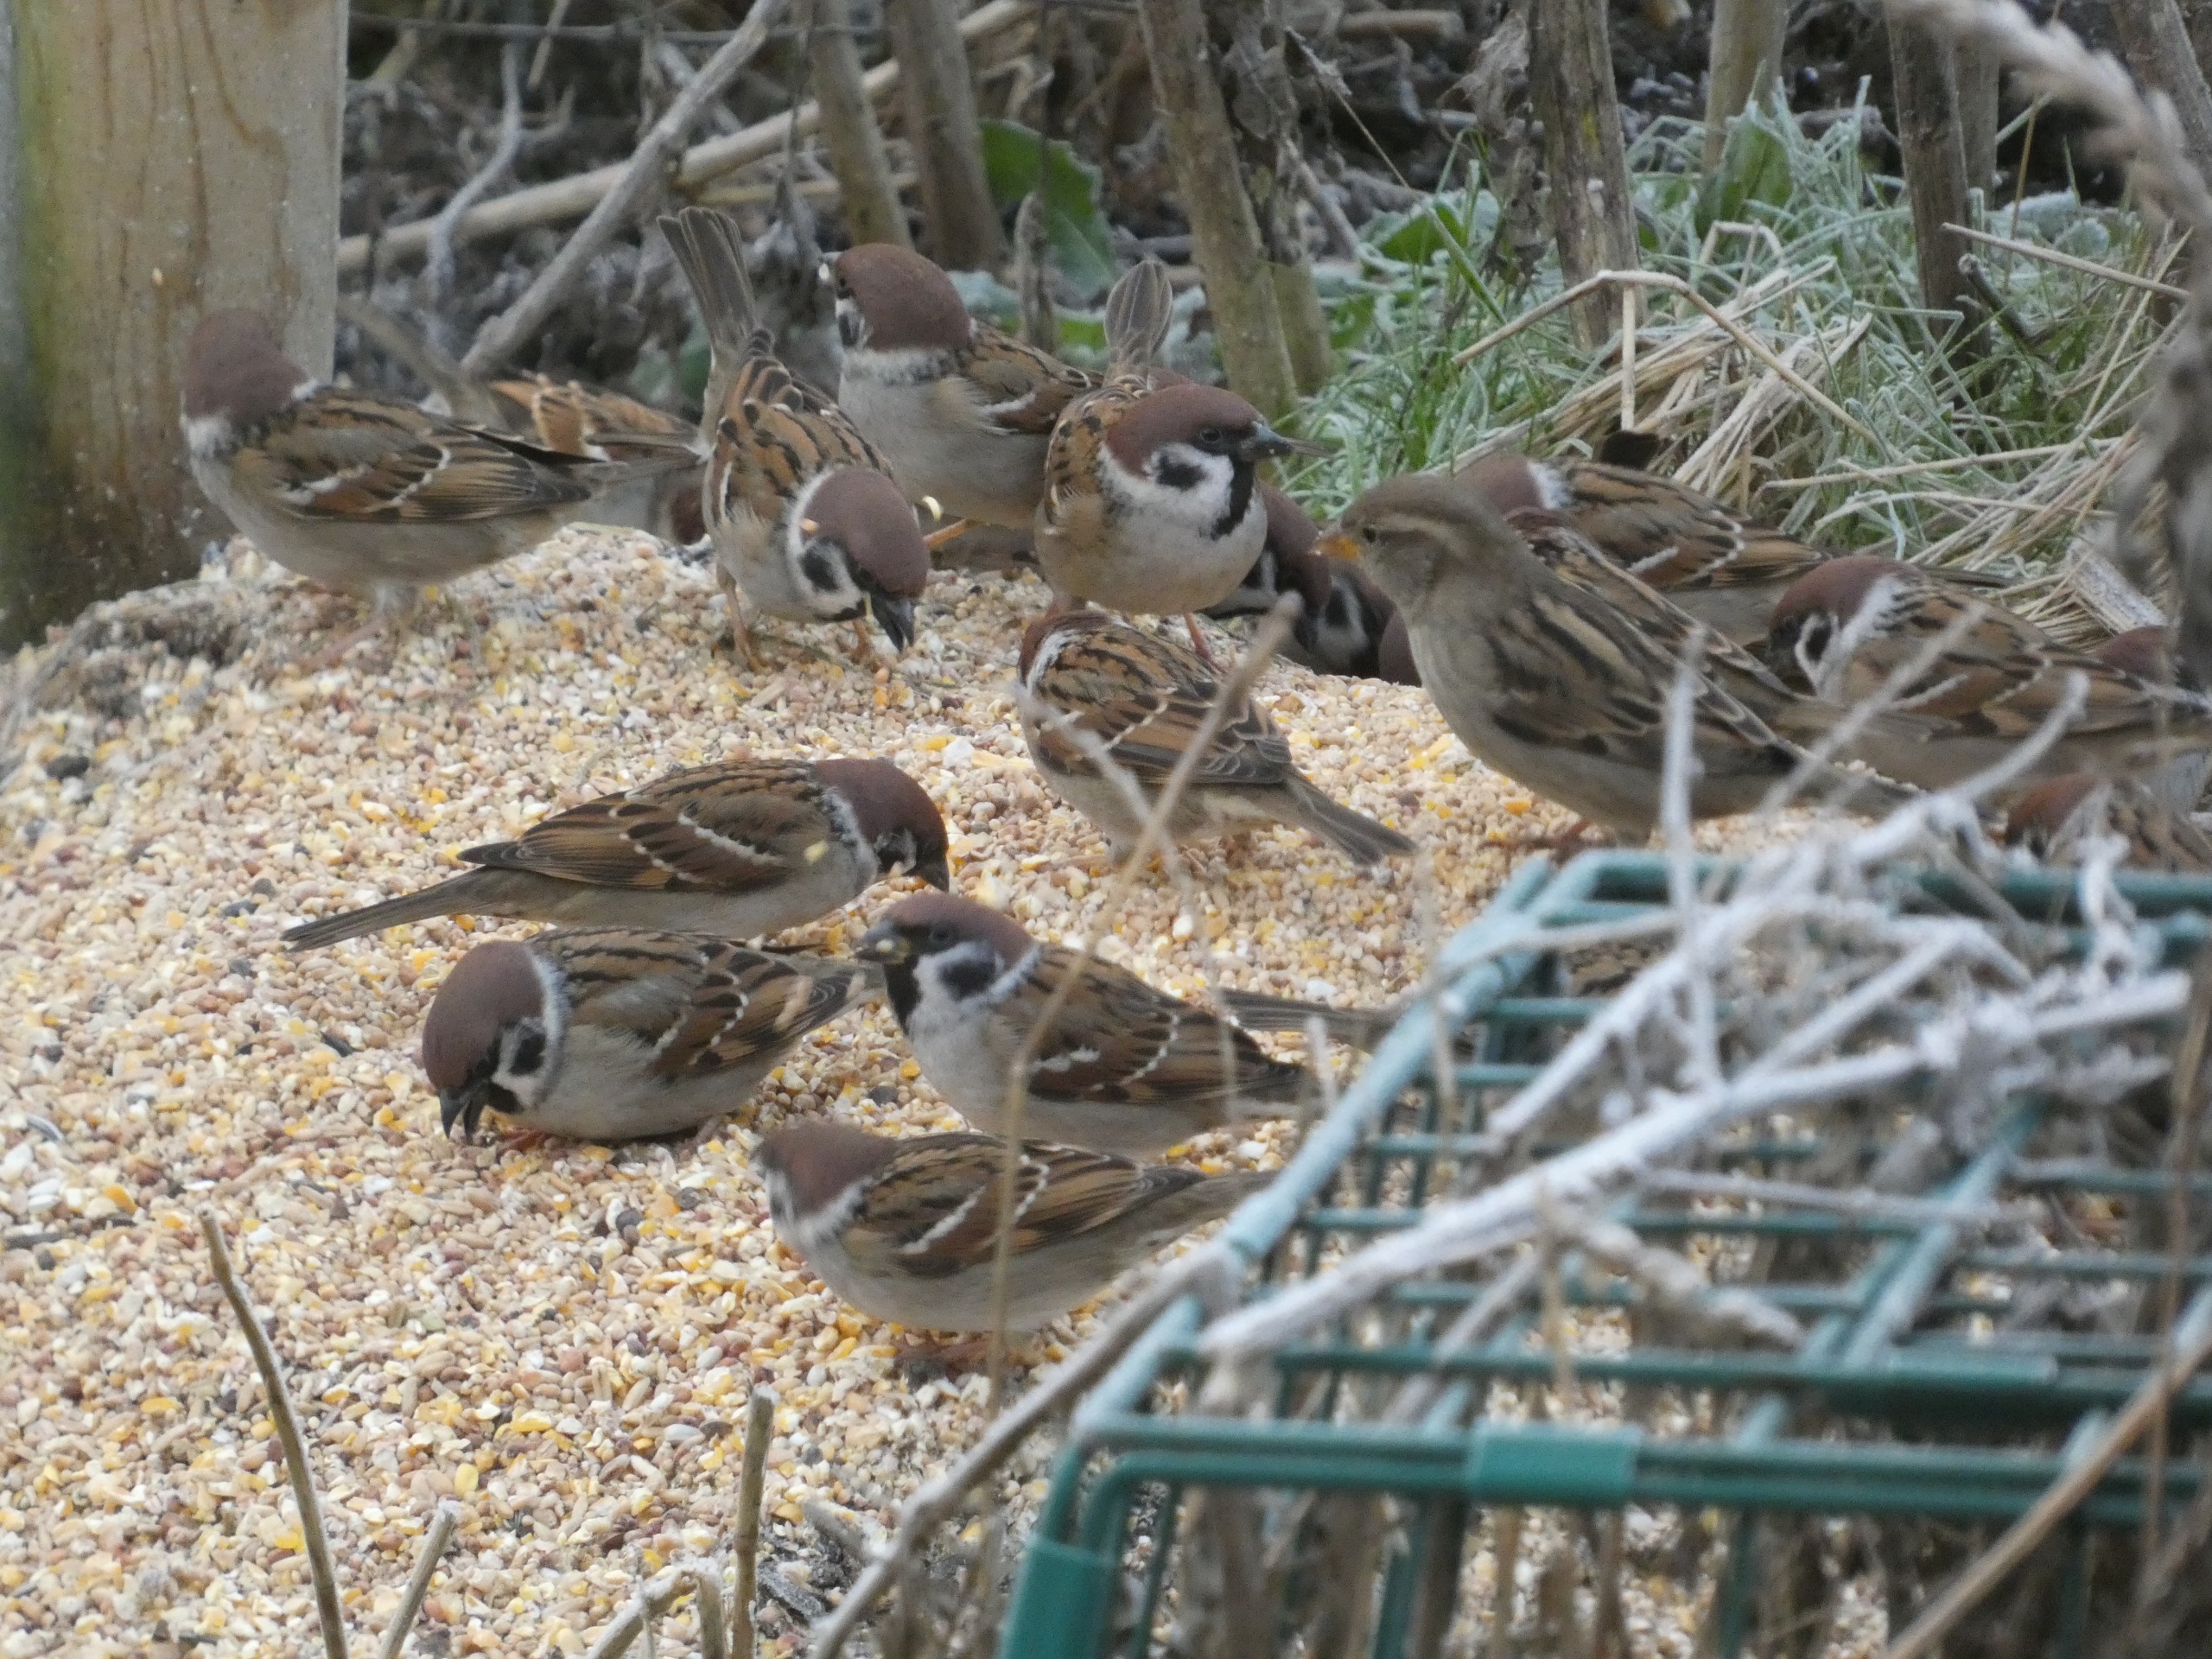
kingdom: Animalia
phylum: Chordata
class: Aves
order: Passeriformes
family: Passeridae
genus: Passer
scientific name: Passer montanus
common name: Skovspurv
